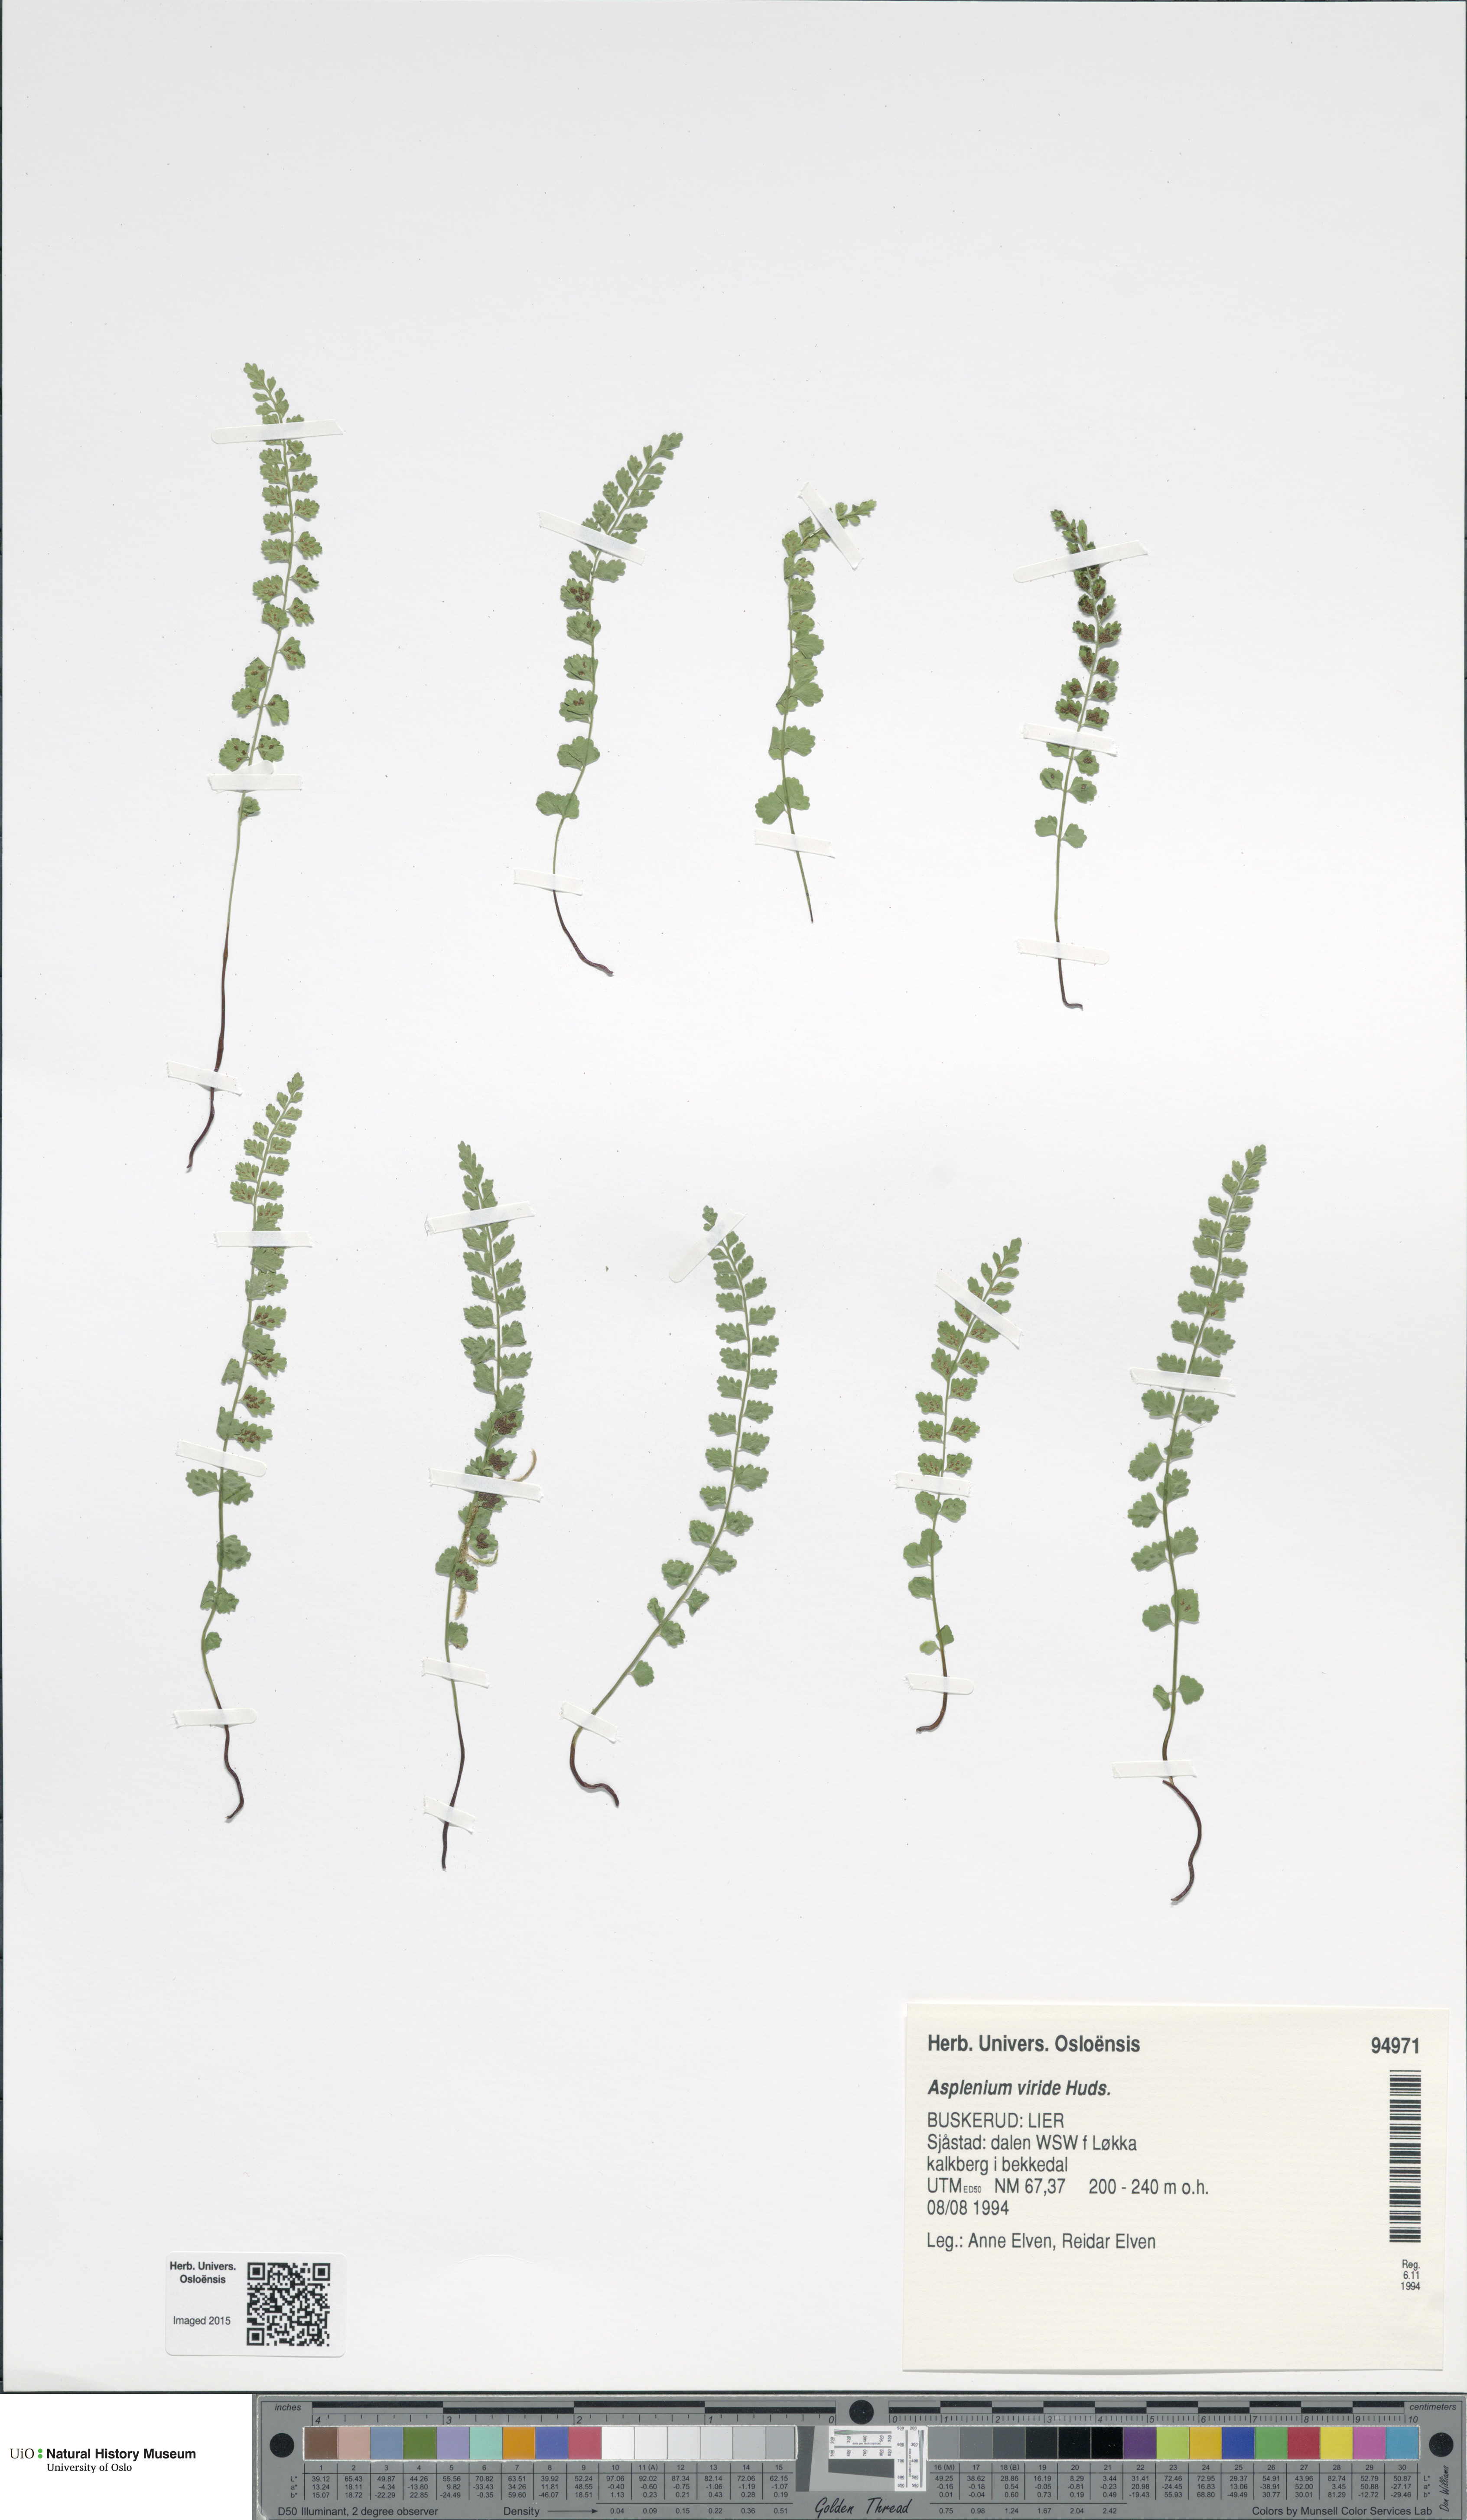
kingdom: Plantae
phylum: Tracheophyta
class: Polypodiopsida
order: Polypodiales
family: Aspleniaceae
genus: Asplenium
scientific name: Asplenium viride
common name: Green spleenwort
